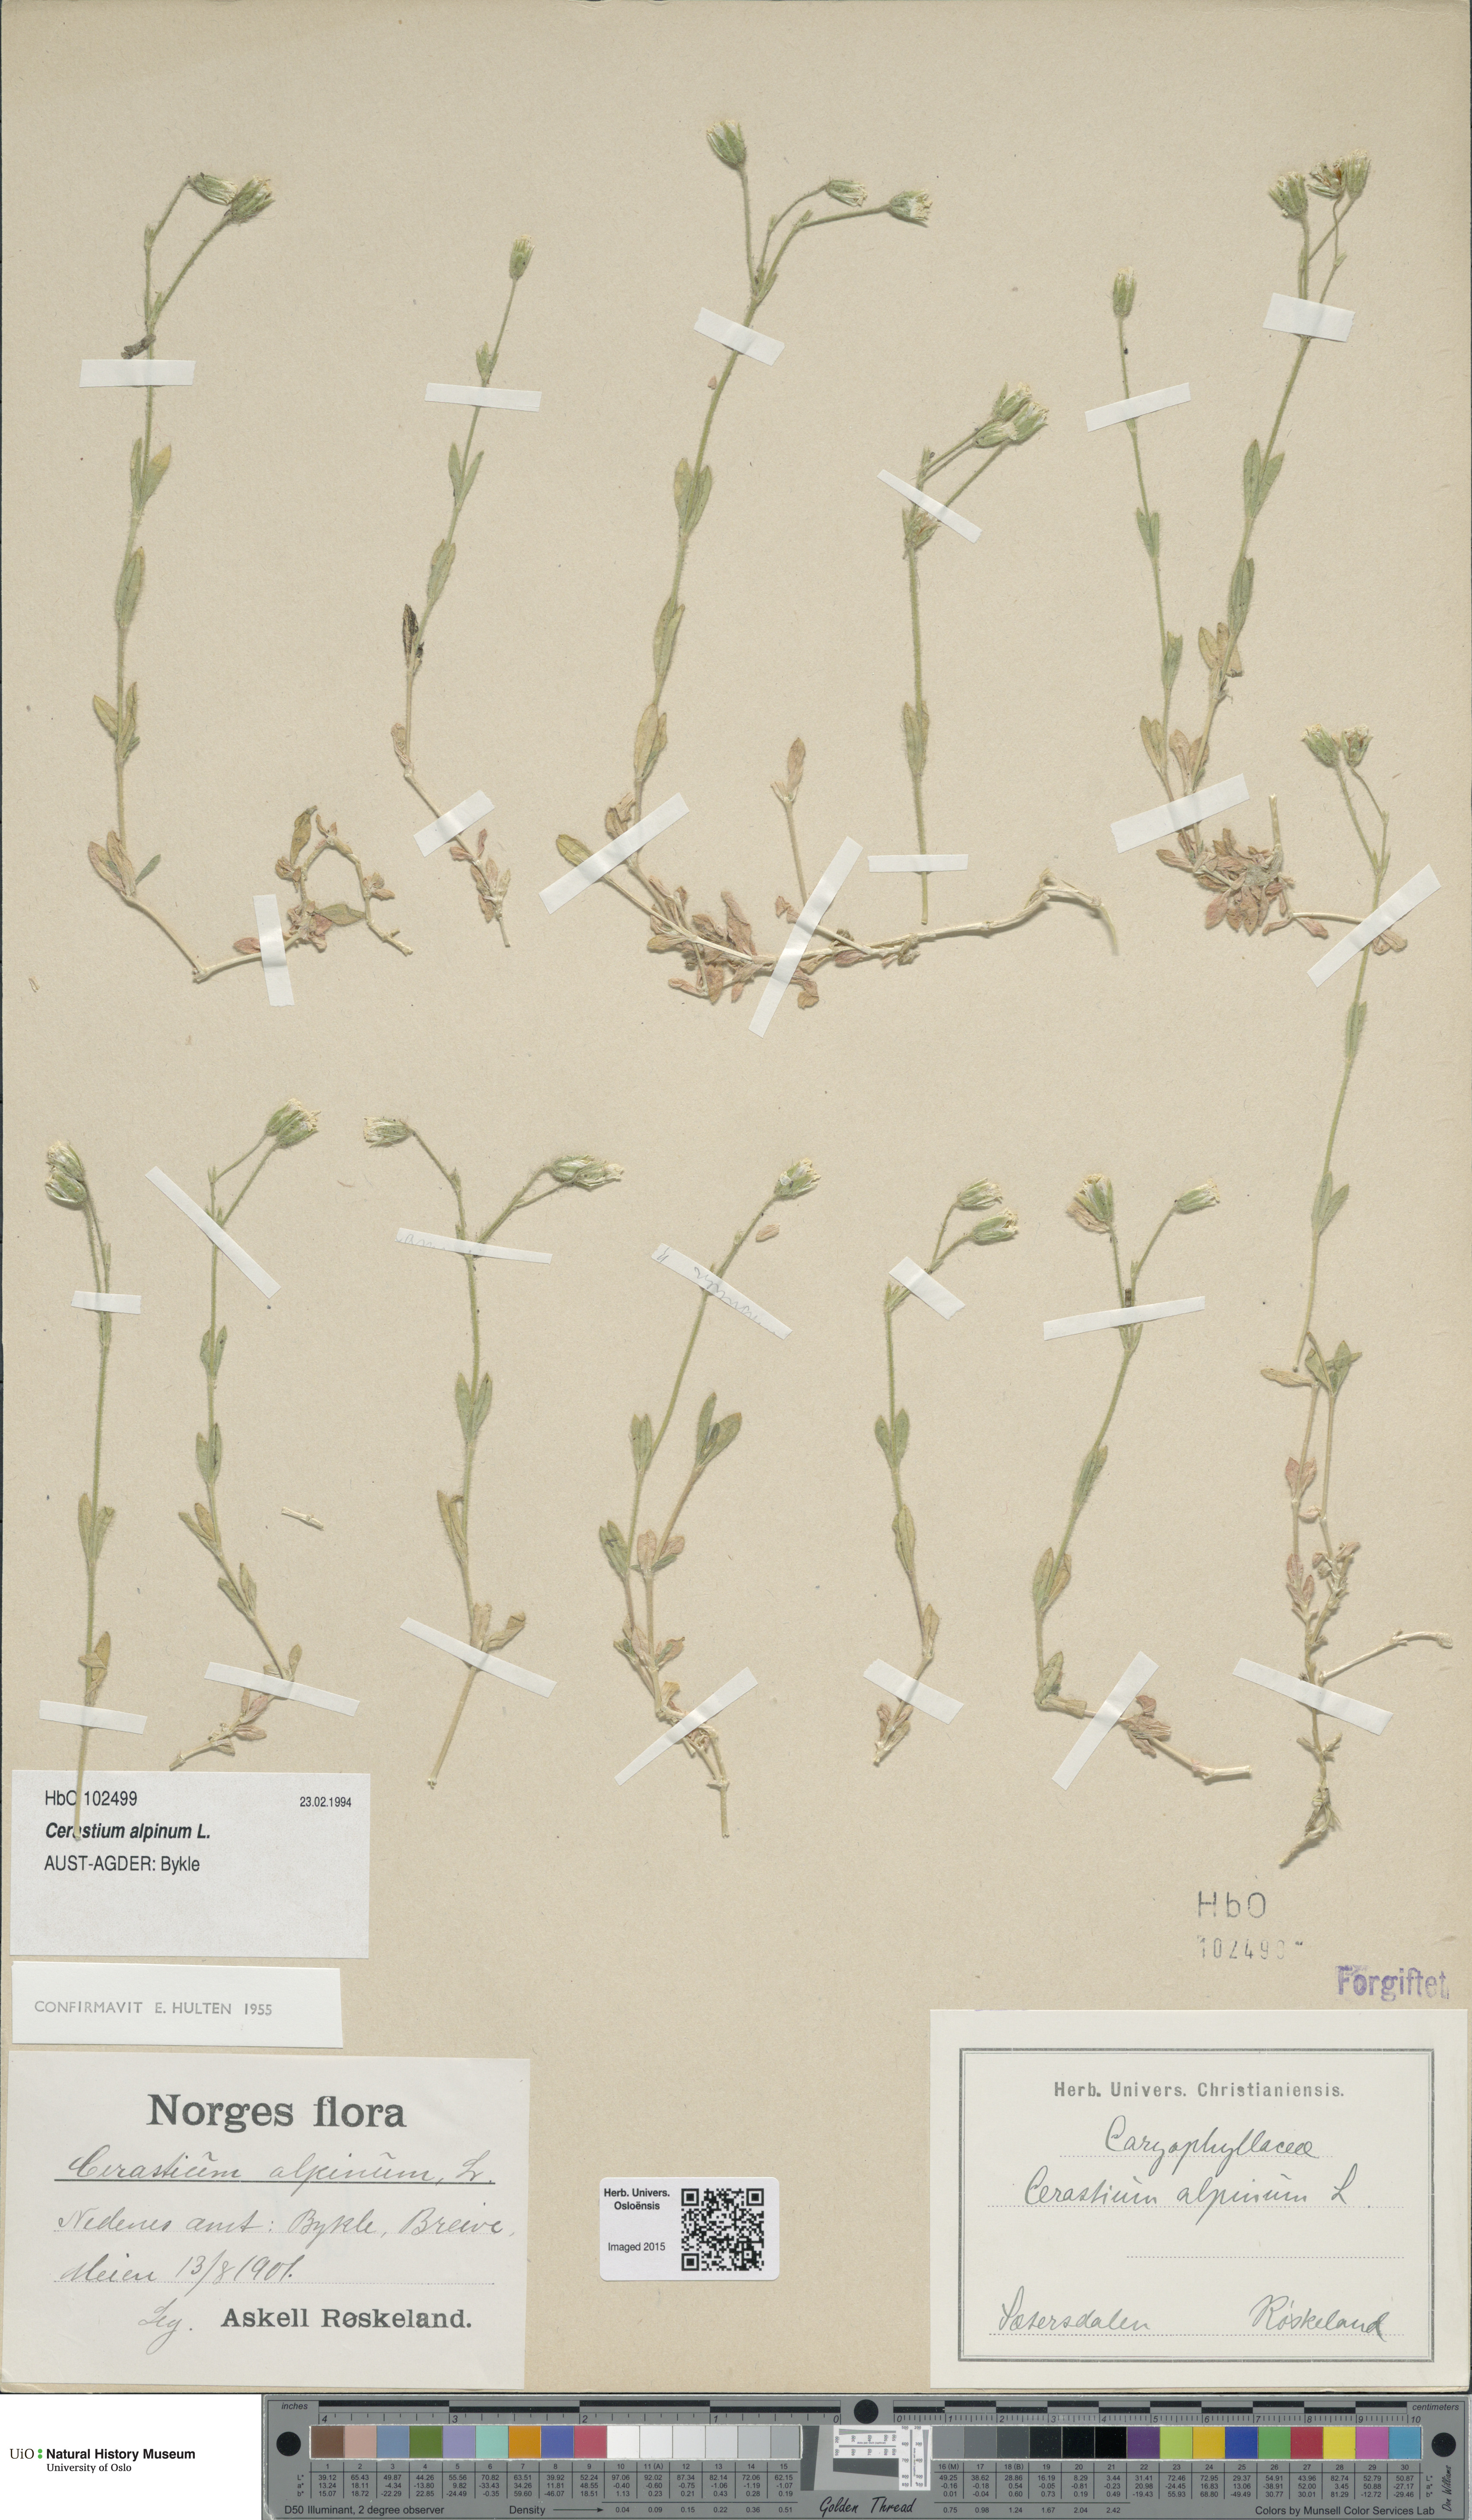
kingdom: Plantae
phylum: Tracheophyta
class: Magnoliopsida
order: Caryophyllales
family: Caryophyllaceae
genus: Cerastium
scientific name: Cerastium alpinum
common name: Alpine mouse-ear
